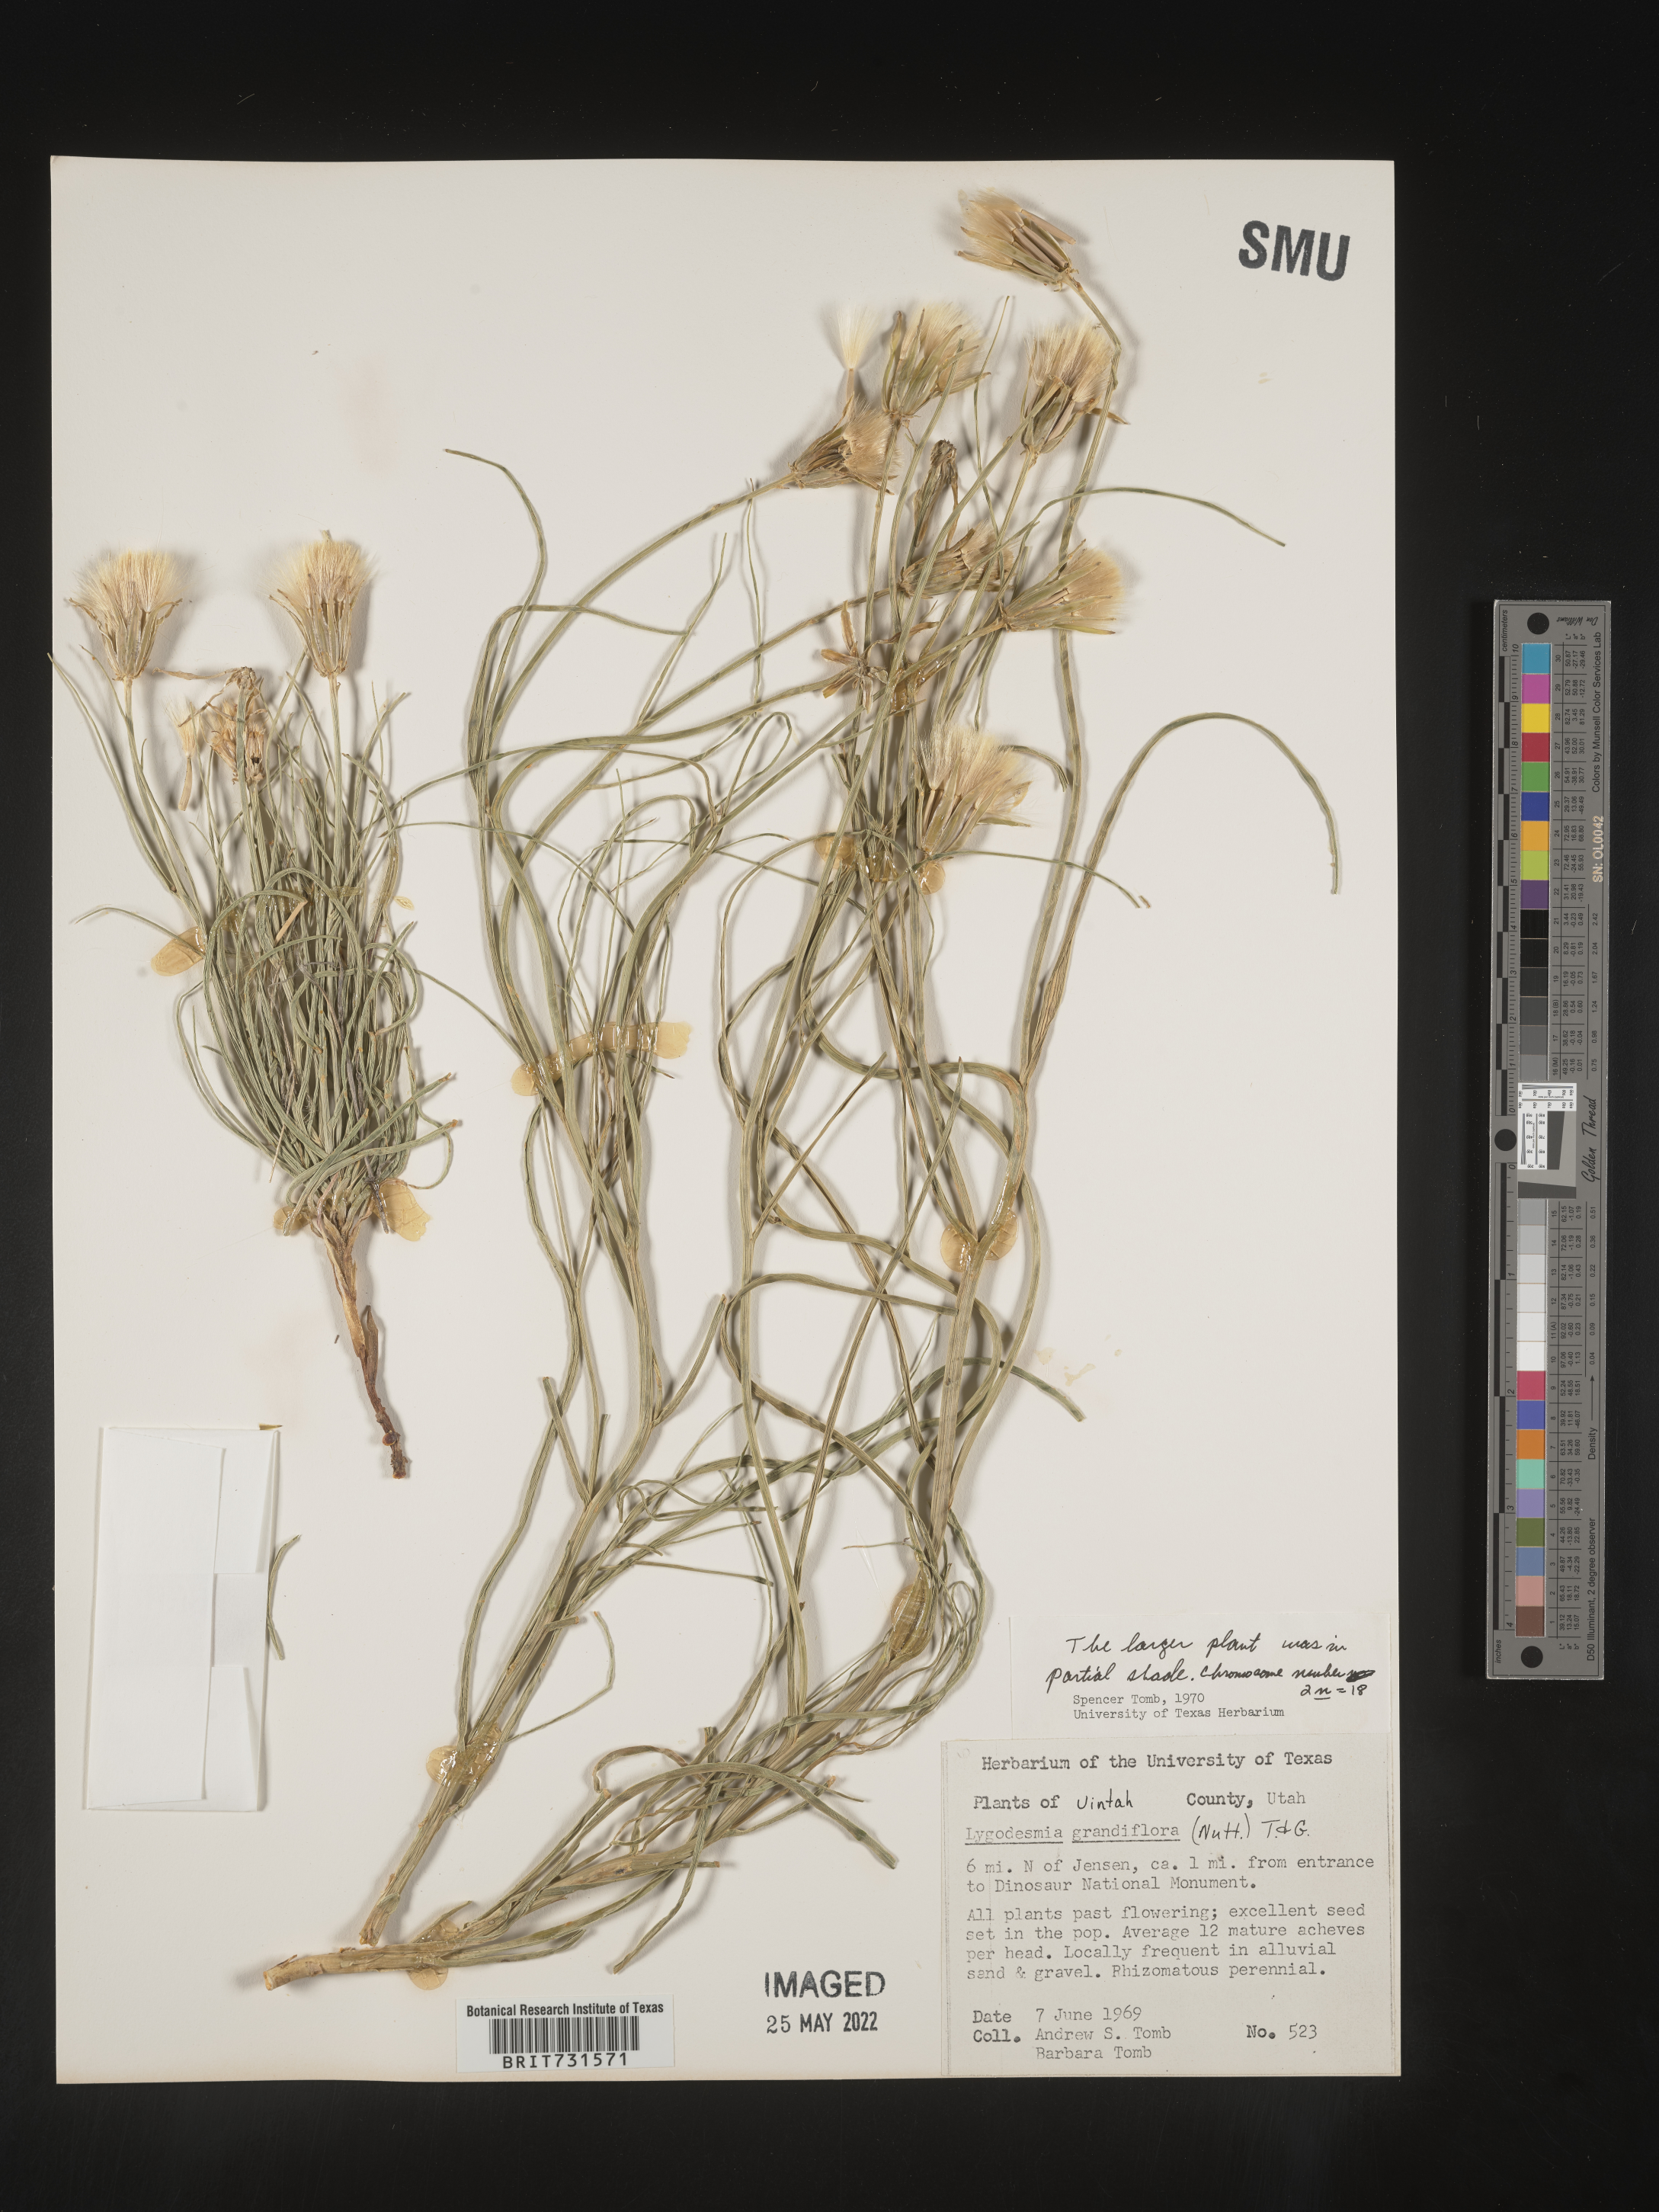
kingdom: Plantae
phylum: Tracheophyta
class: Magnoliopsida
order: Asterales
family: Asteraceae
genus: Lygodesmia
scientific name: Lygodesmia grandiflora
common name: Showy rush-pink
